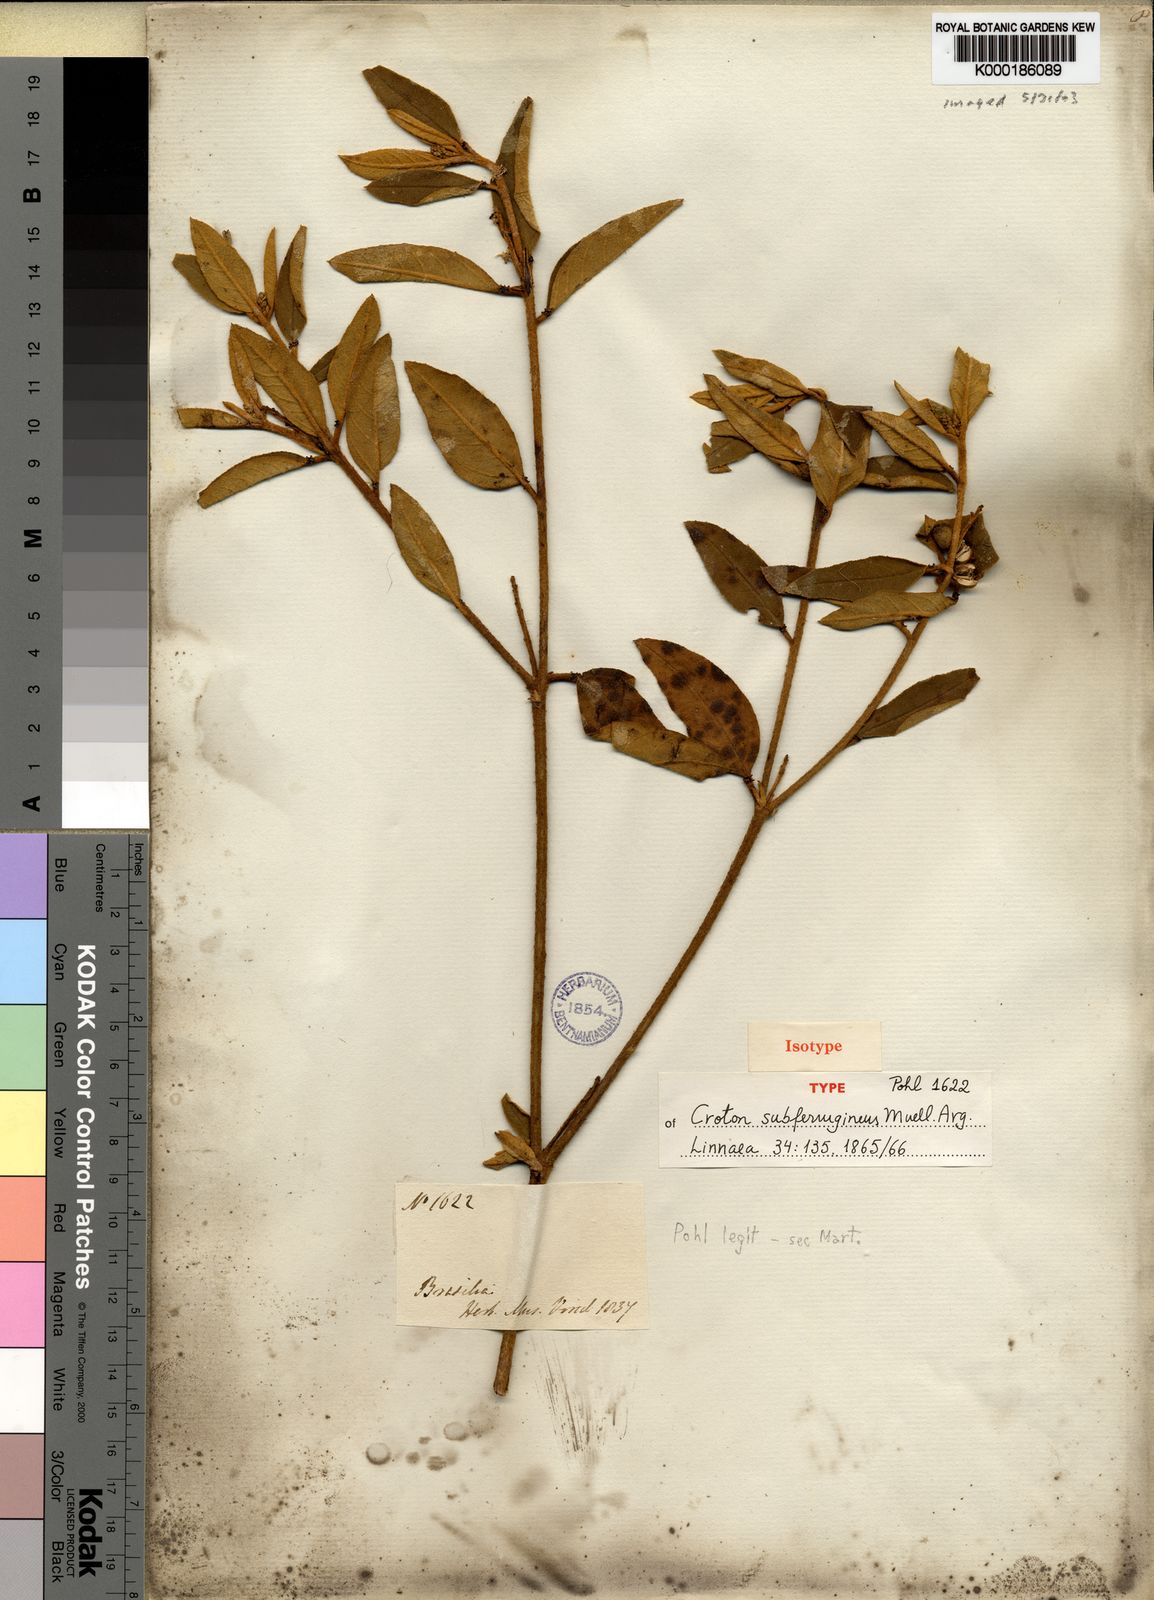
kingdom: Plantae
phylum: Tracheophyta
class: Magnoliopsida
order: Malpighiales
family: Euphorbiaceae
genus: Croton
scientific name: Croton
